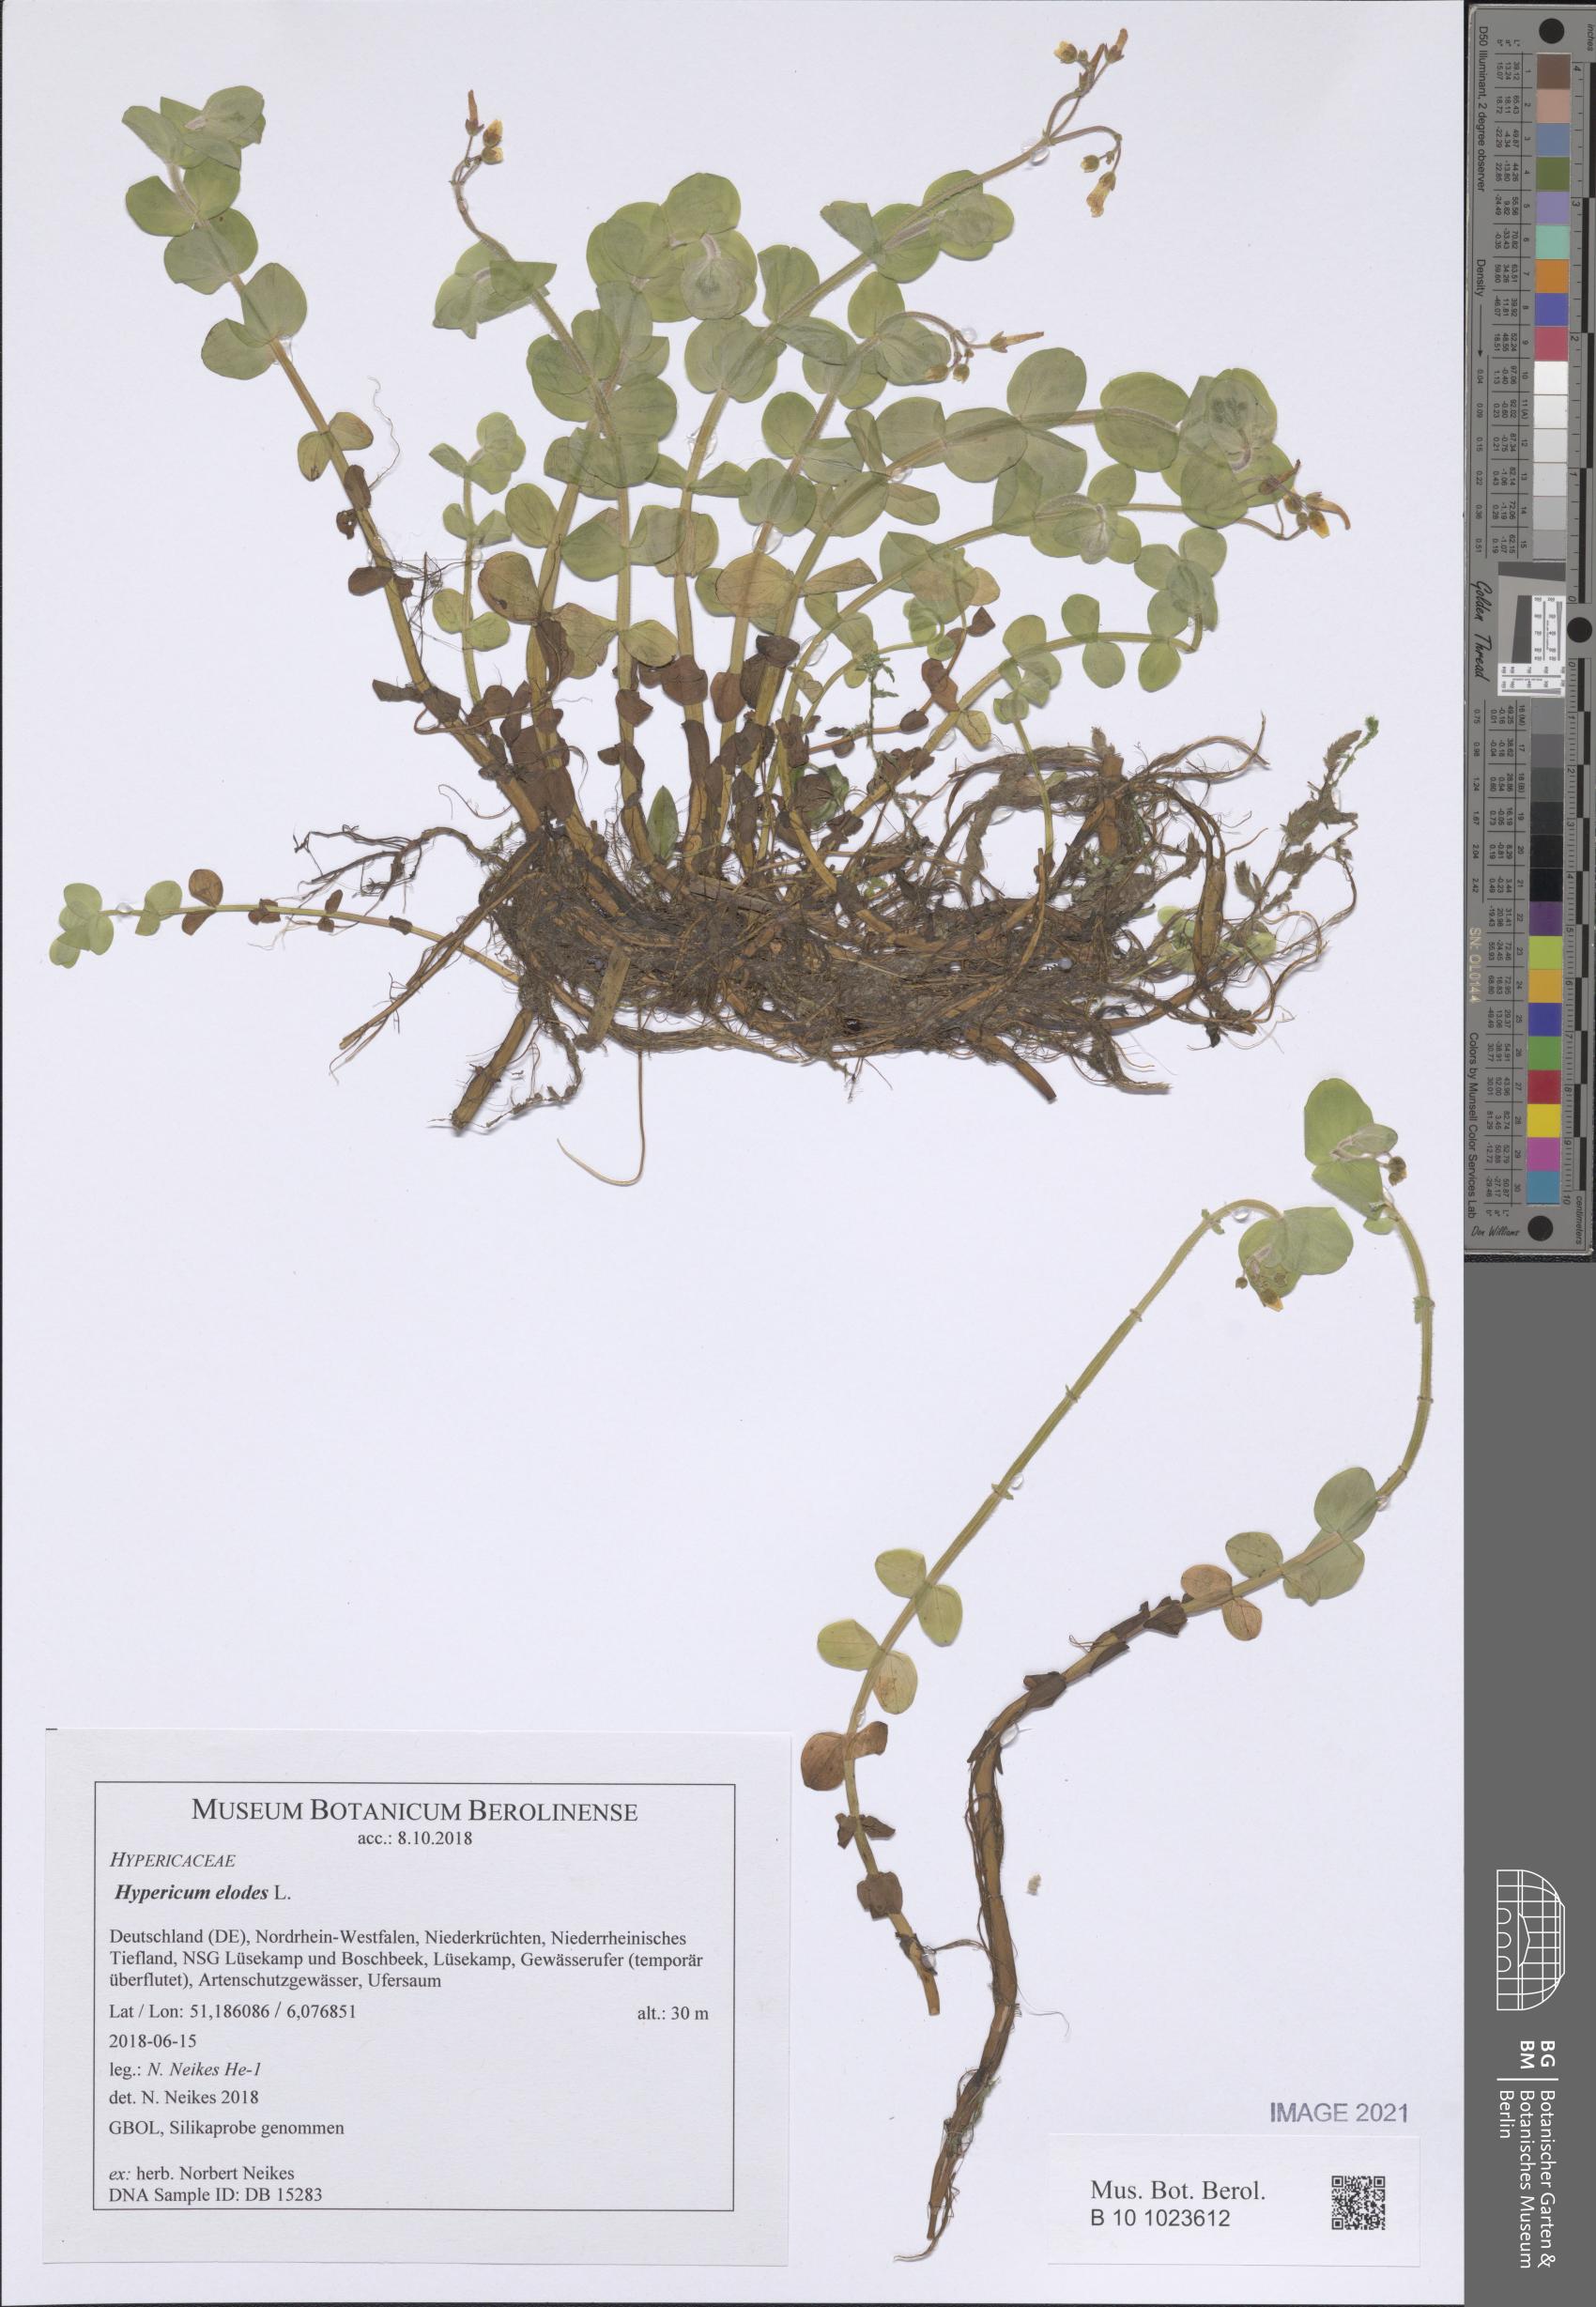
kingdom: Plantae
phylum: Tracheophyta
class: Magnoliopsida
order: Malpighiales
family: Hypericaceae
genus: Hypericum
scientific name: Hypericum elodes
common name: Marsh st. john's-wort
